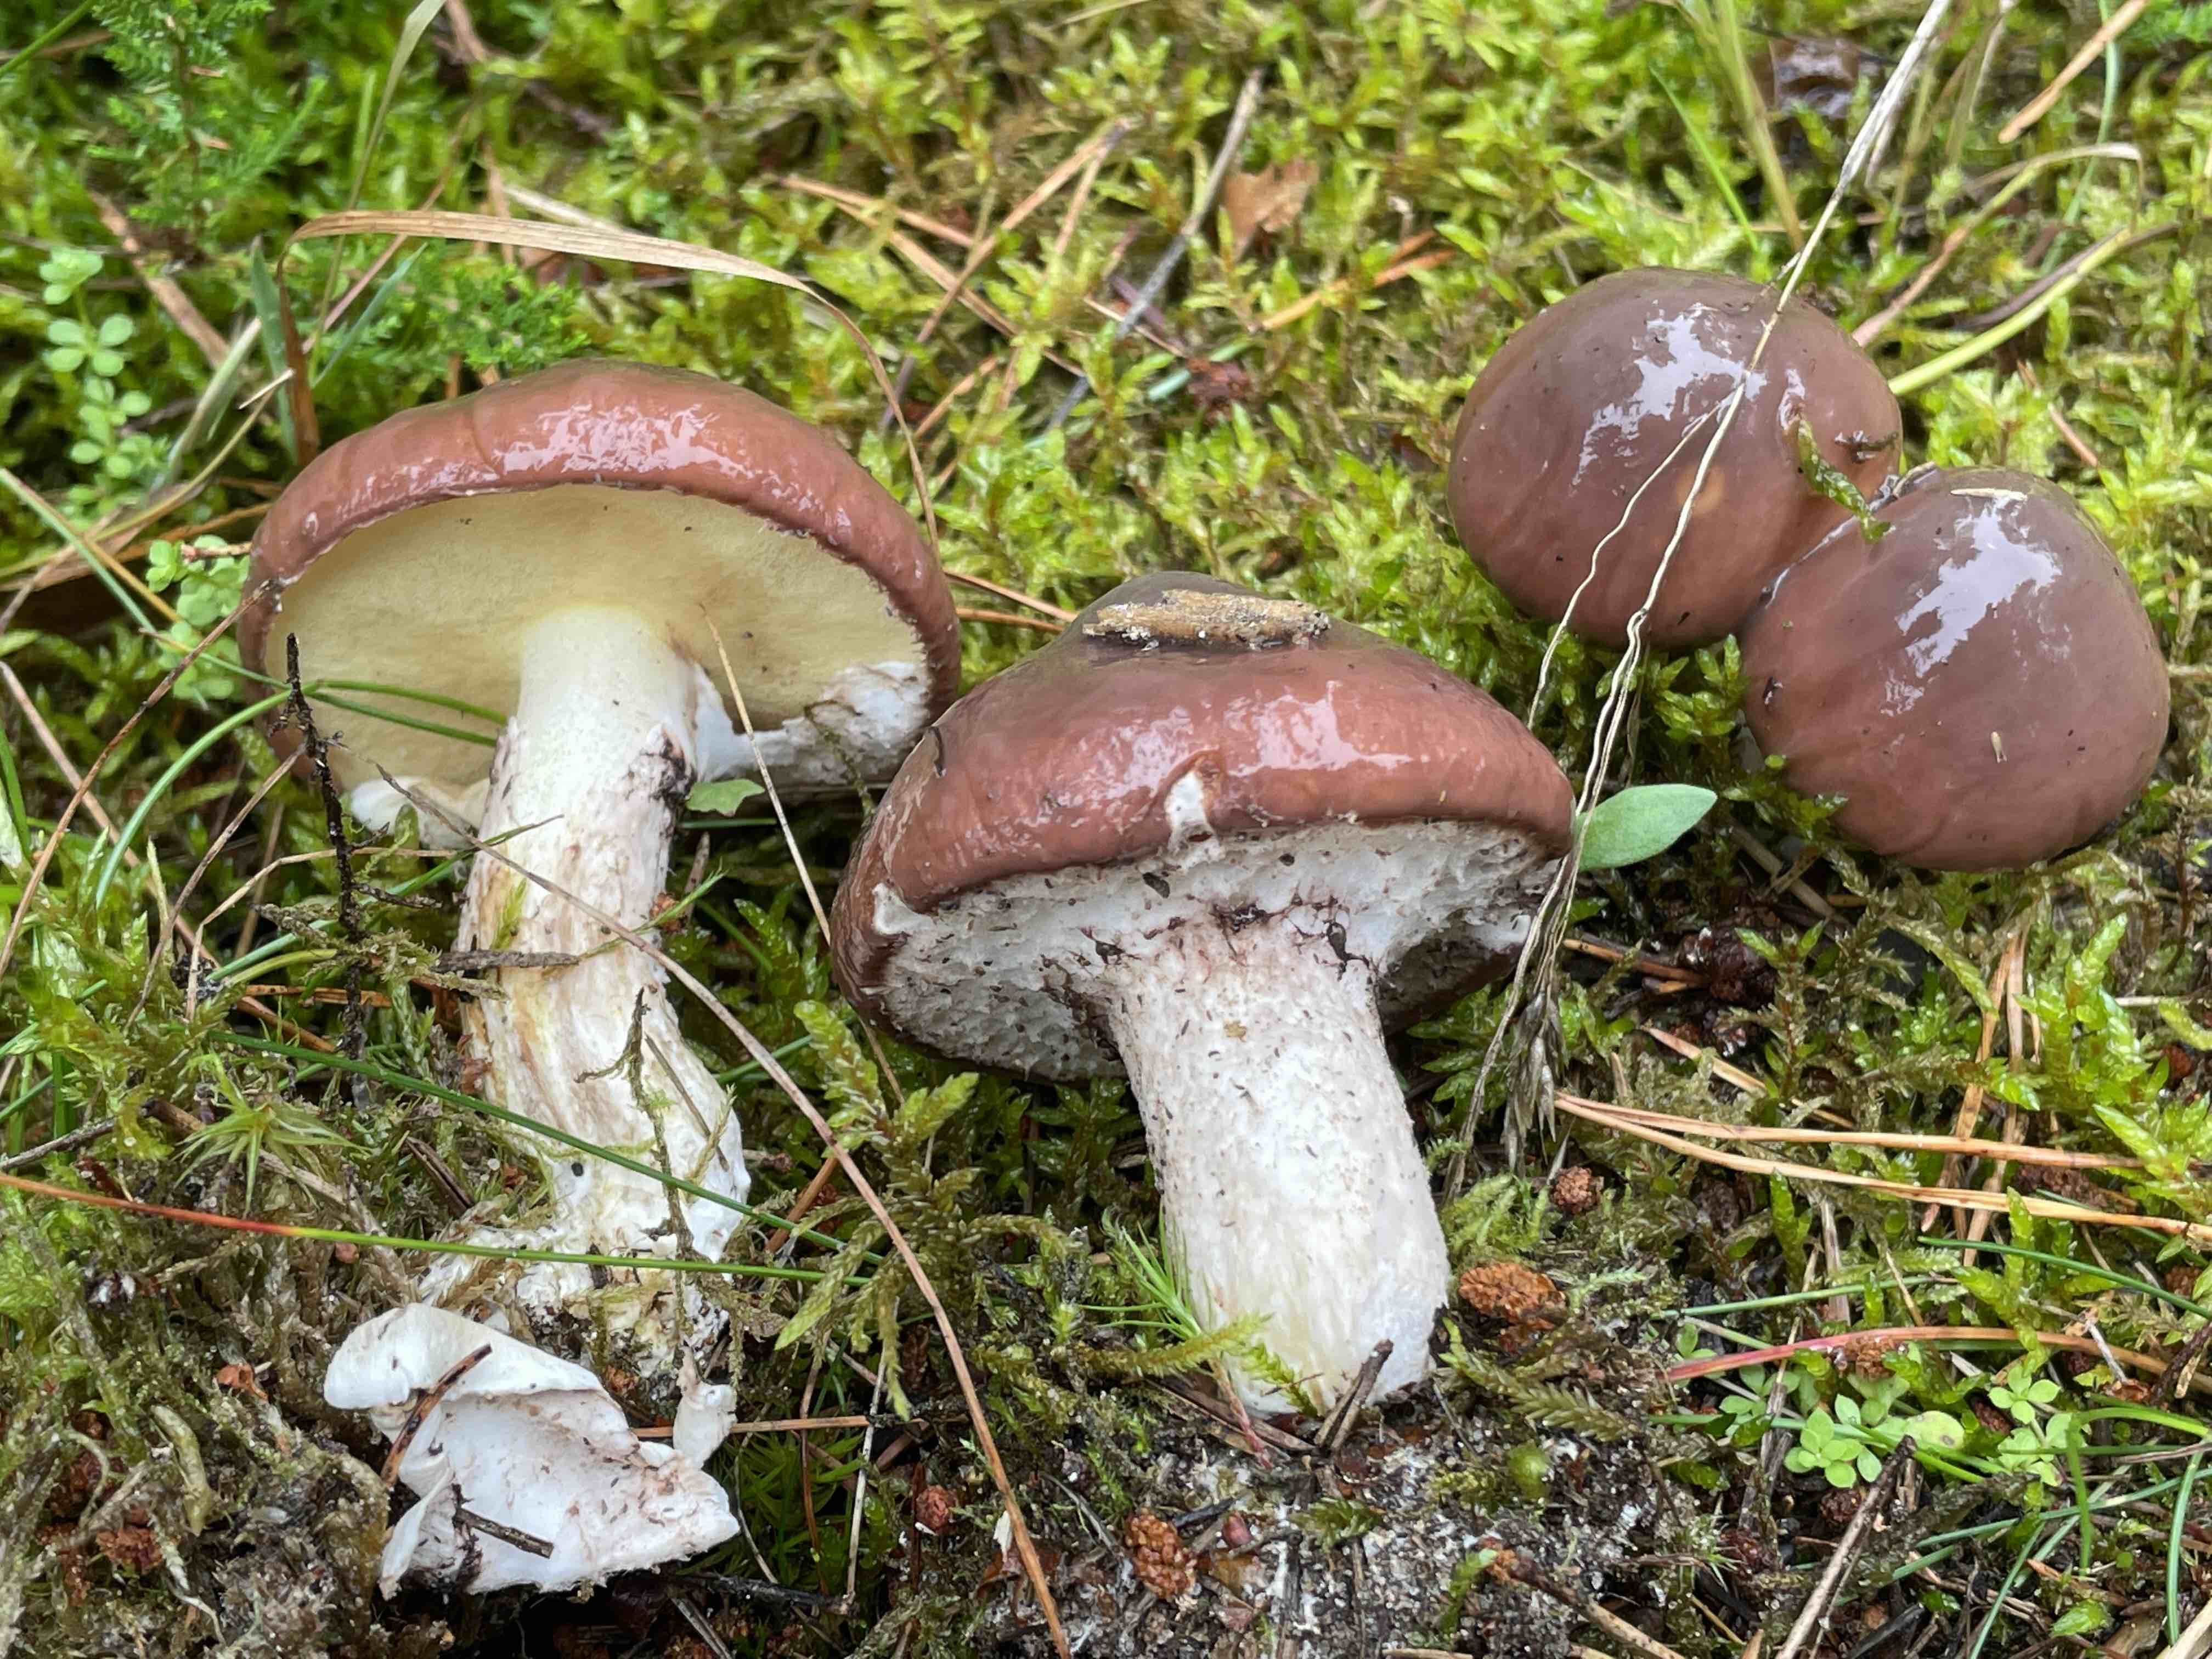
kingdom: Fungi
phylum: Basidiomycota
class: Agaricomycetes
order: Boletales
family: Suillaceae
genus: Suillus
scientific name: Suillus luteus
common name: brungul slimrørhat
